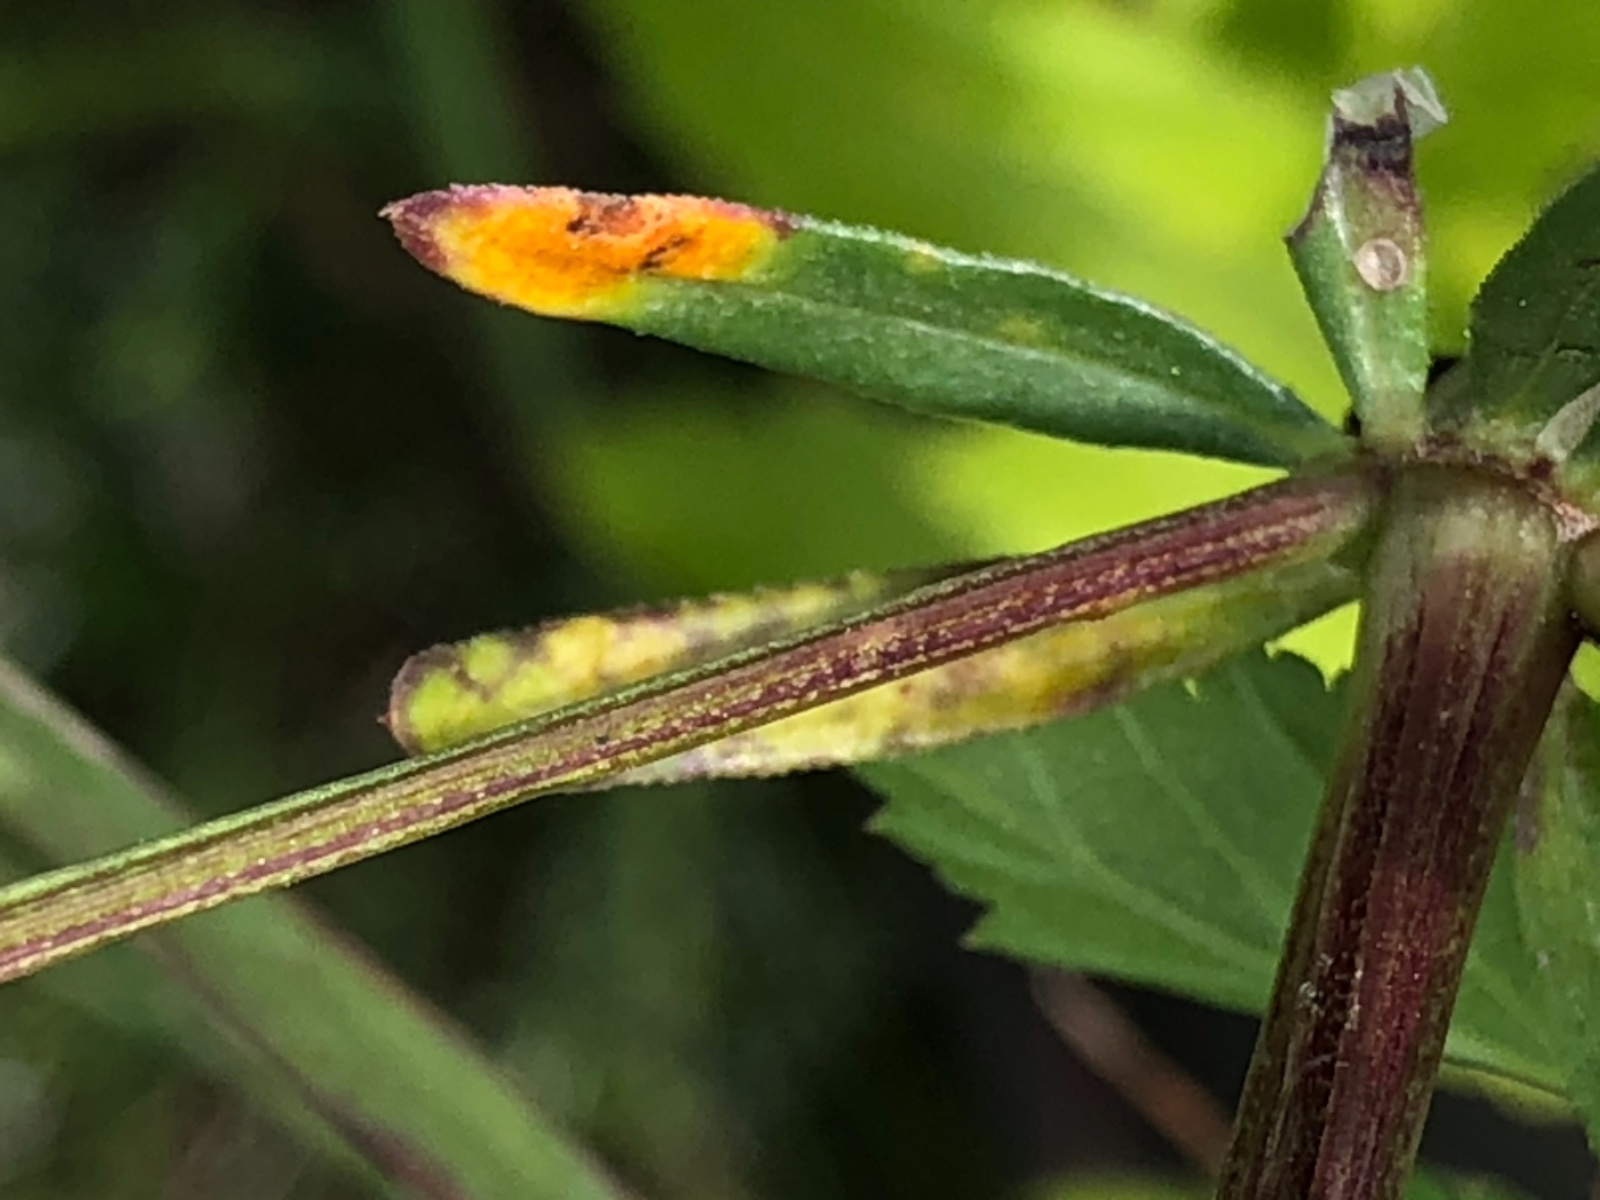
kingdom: Fungi
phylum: Basidiomycota
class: Pucciniomycetes
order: Pucciniales
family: Pucciniaceae
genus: Puccinia
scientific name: Puccinia
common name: tvecellerust
